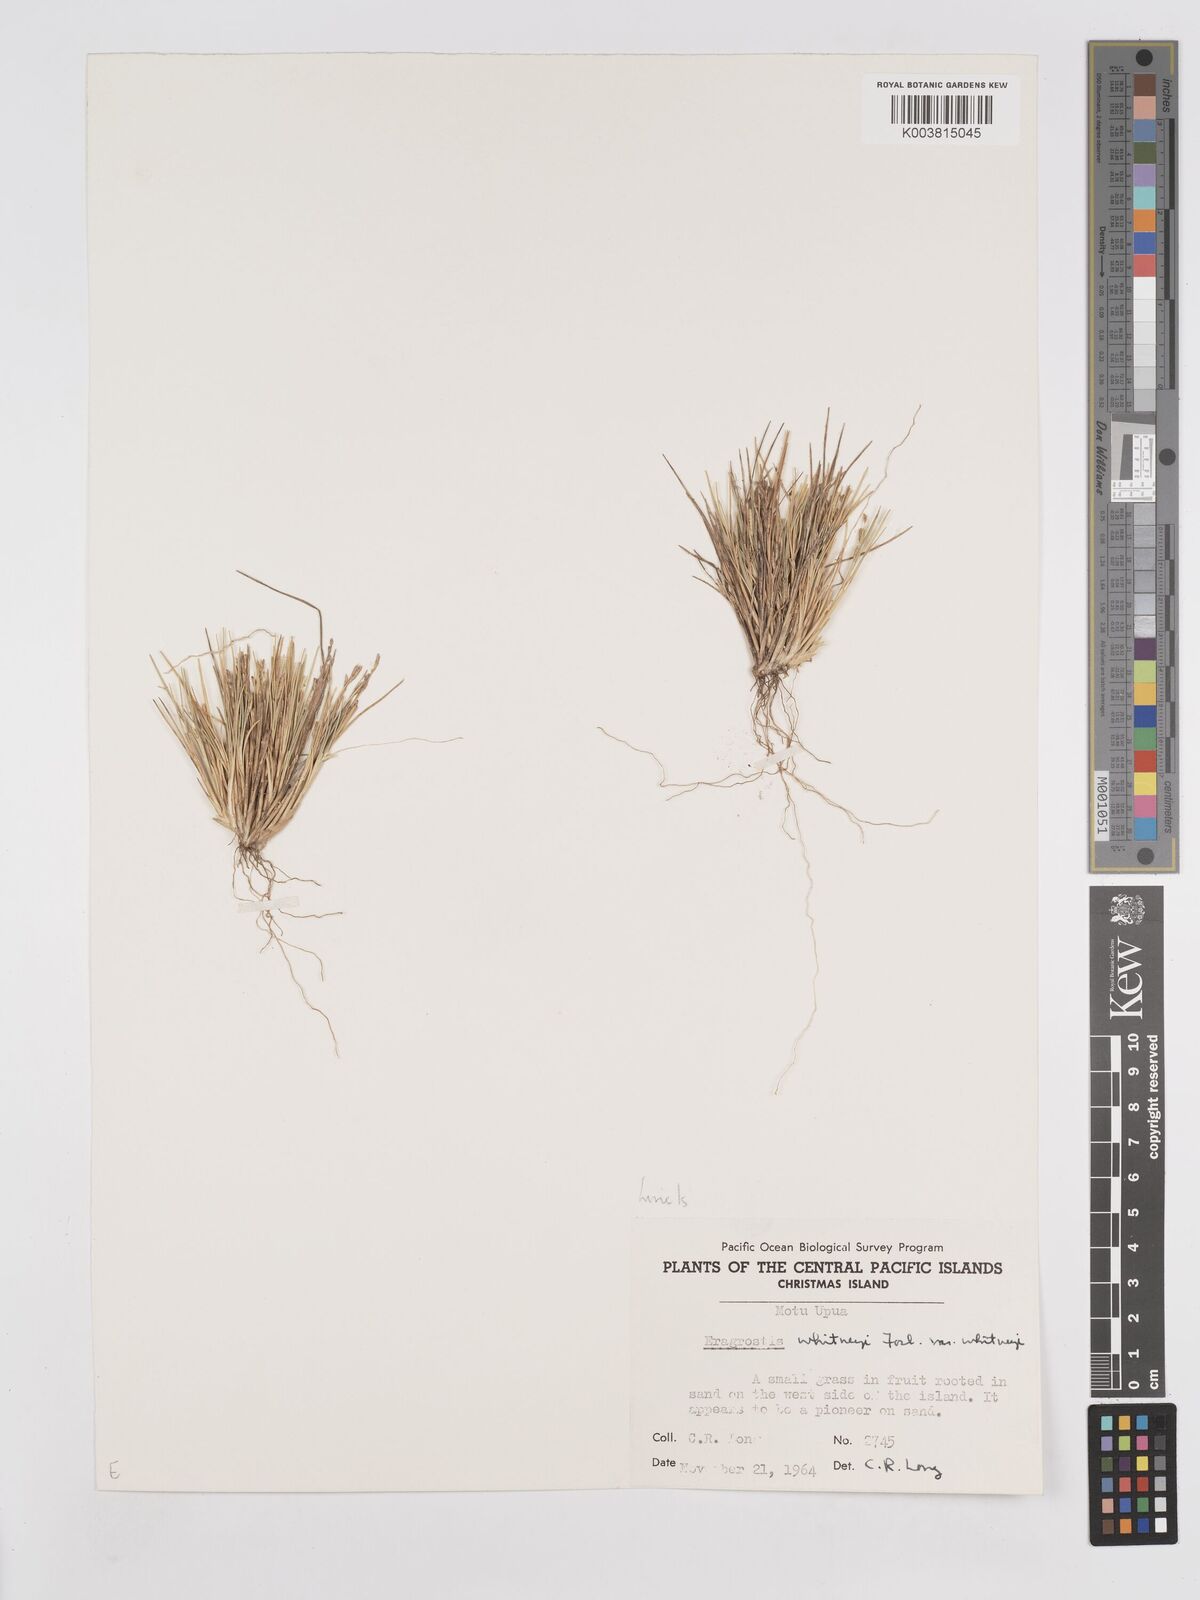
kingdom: Plantae
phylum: Tracheophyta
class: Liliopsida
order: Poales
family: Poaceae
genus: Eragrostis
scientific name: Eragrostis paupera
